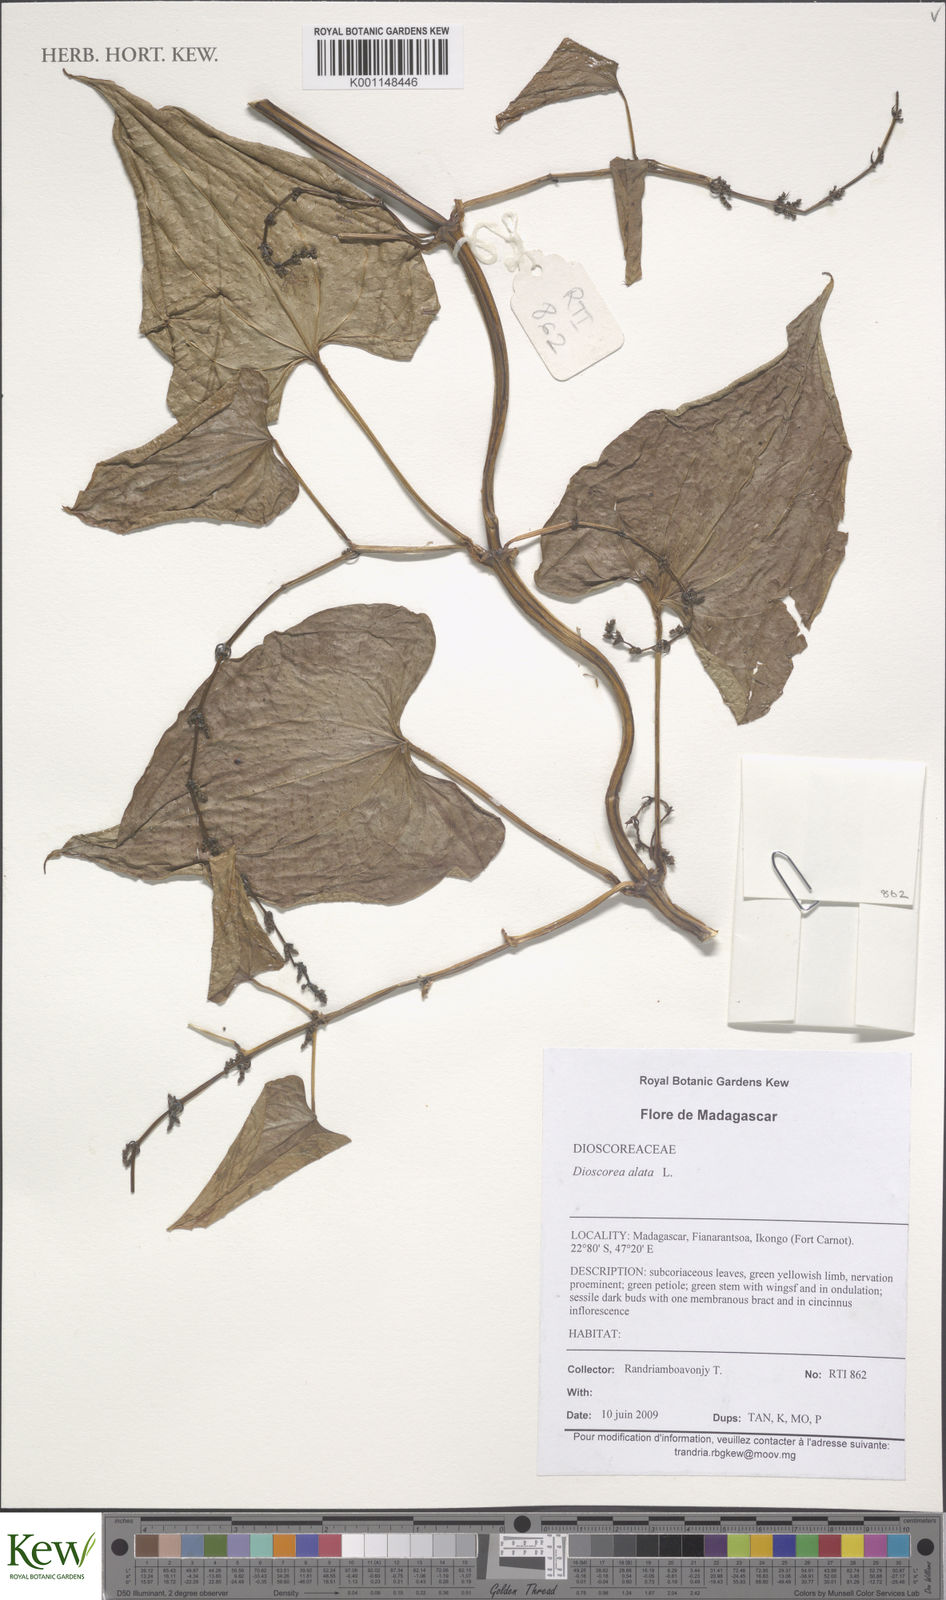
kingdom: Plantae
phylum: Tracheophyta
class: Liliopsida
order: Dioscoreales
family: Dioscoreaceae
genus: Dioscorea
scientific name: Dioscorea alata
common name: Water yam
